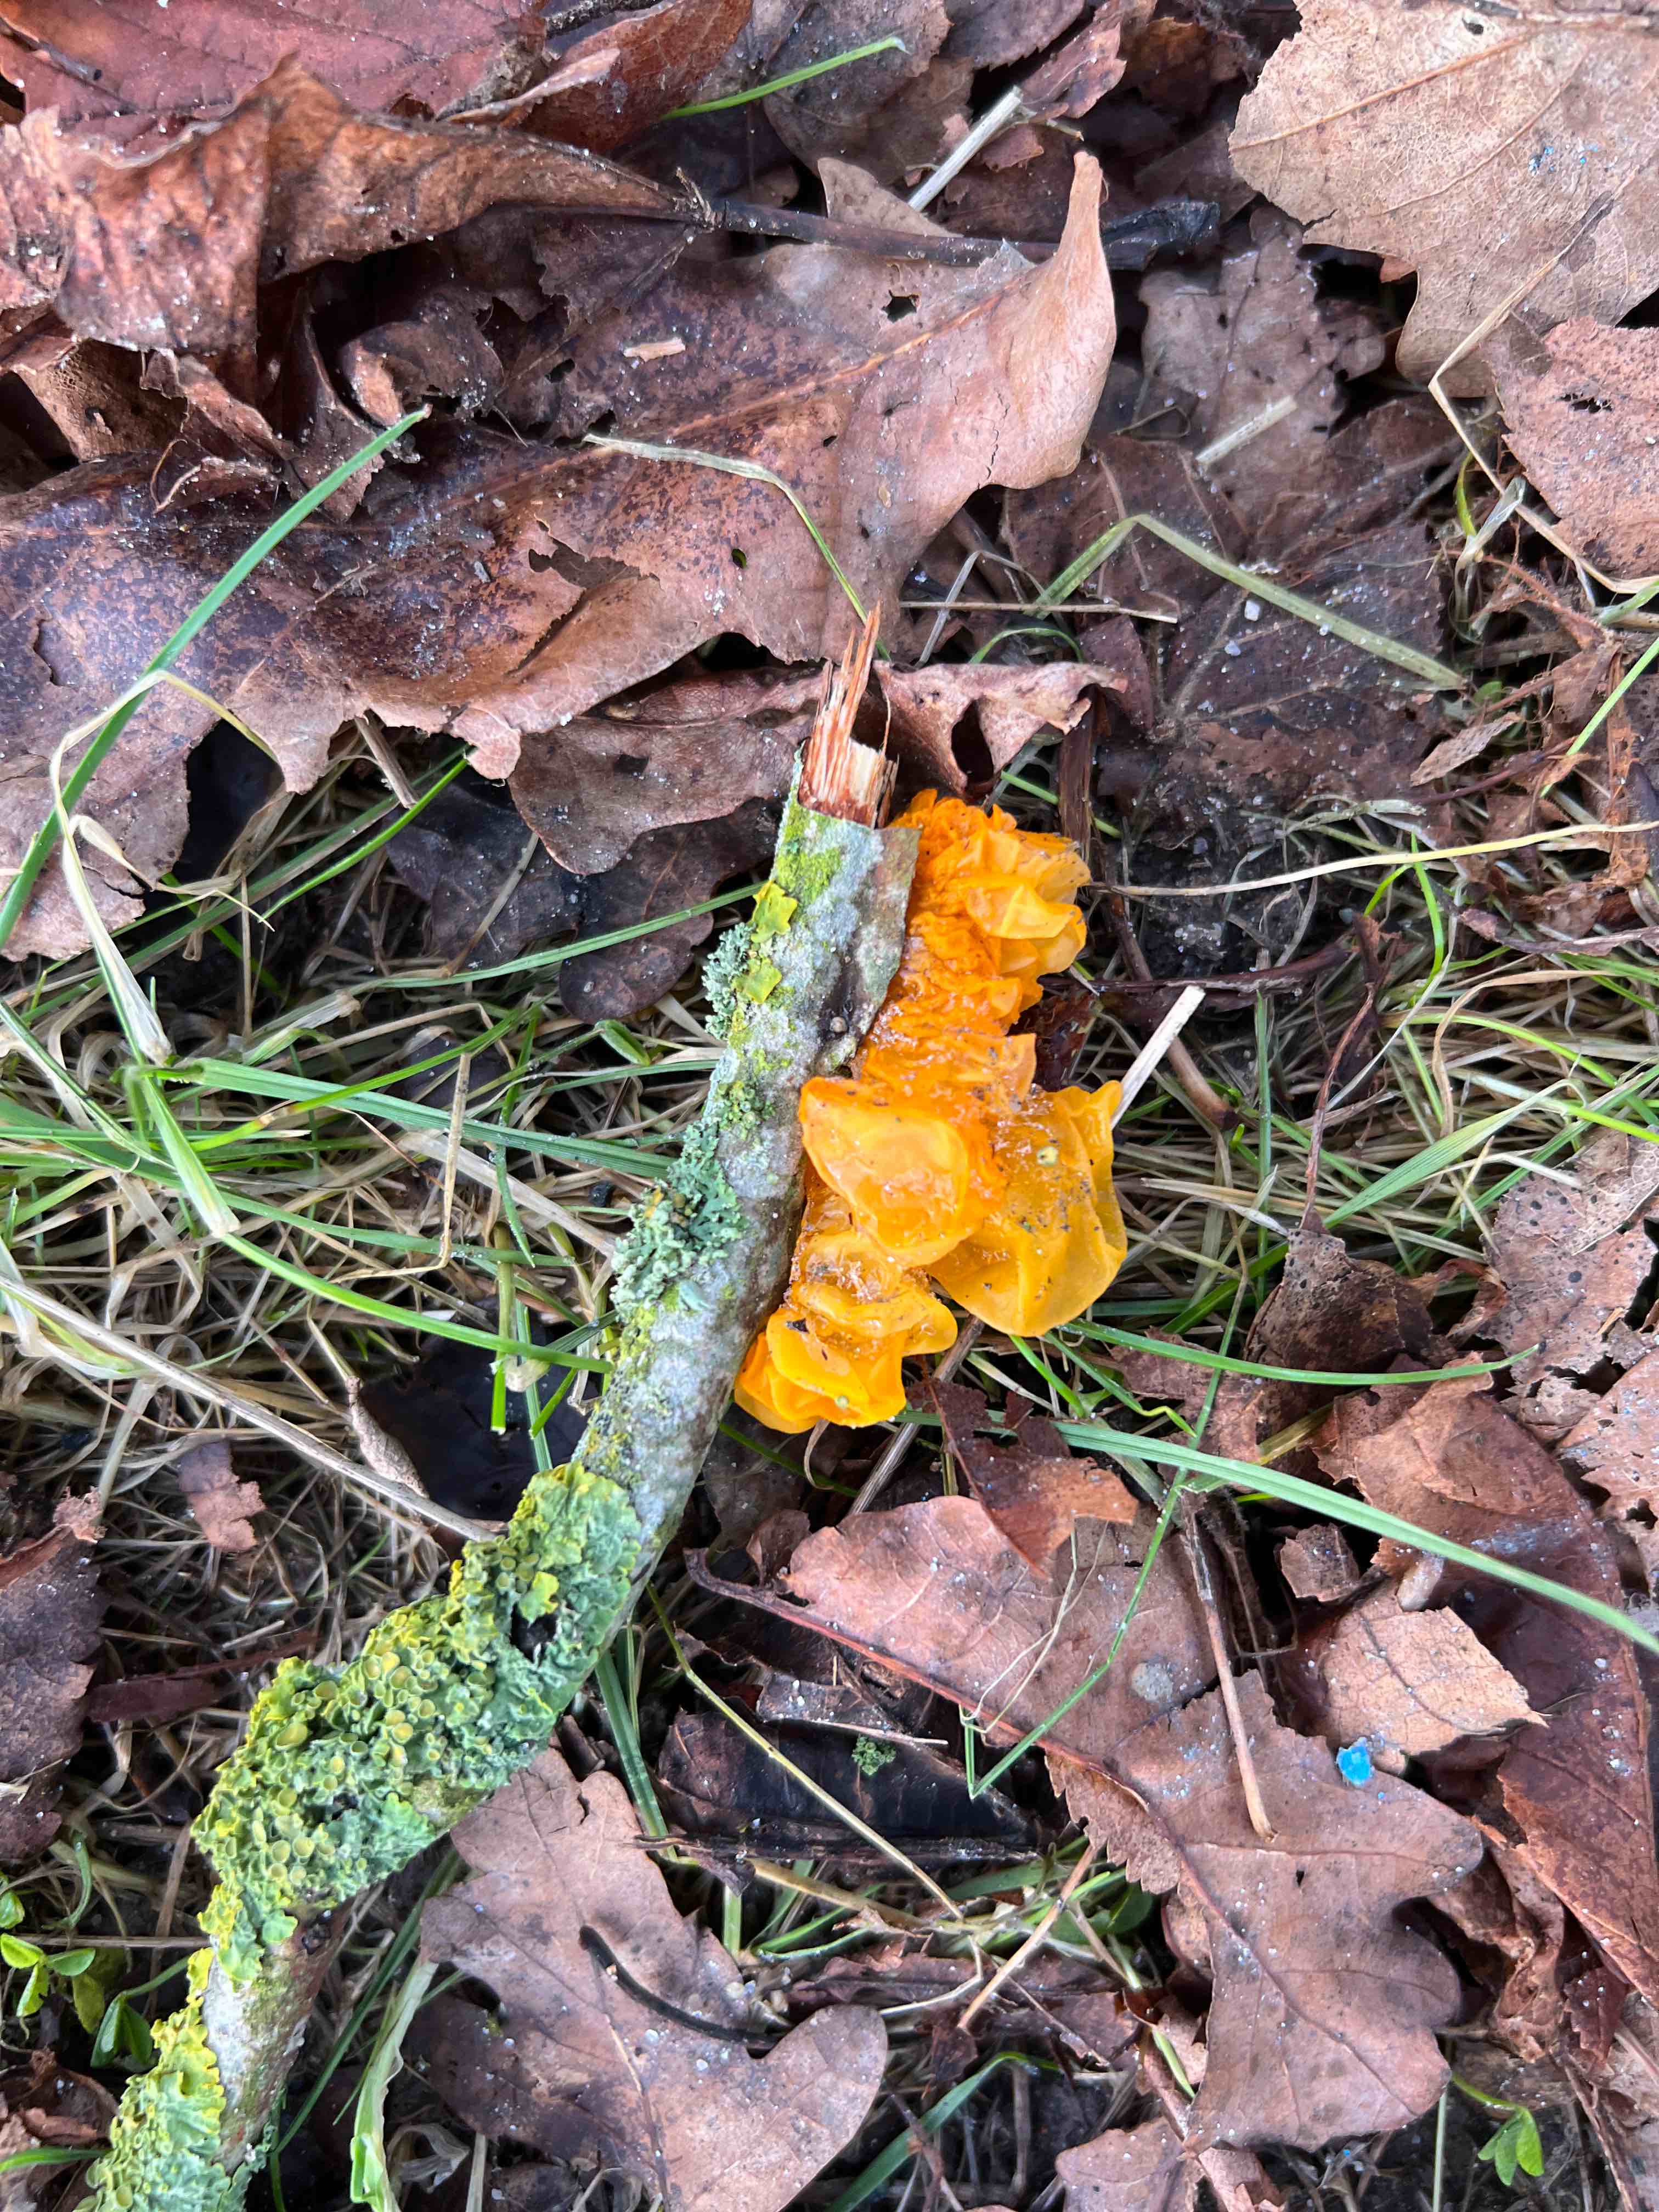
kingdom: Fungi
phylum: Basidiomycota
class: Tremellomycetes
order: Tremellales
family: Tremellaceae
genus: Tremella
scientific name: Tremella mesenterica
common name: gul bævresvamp
